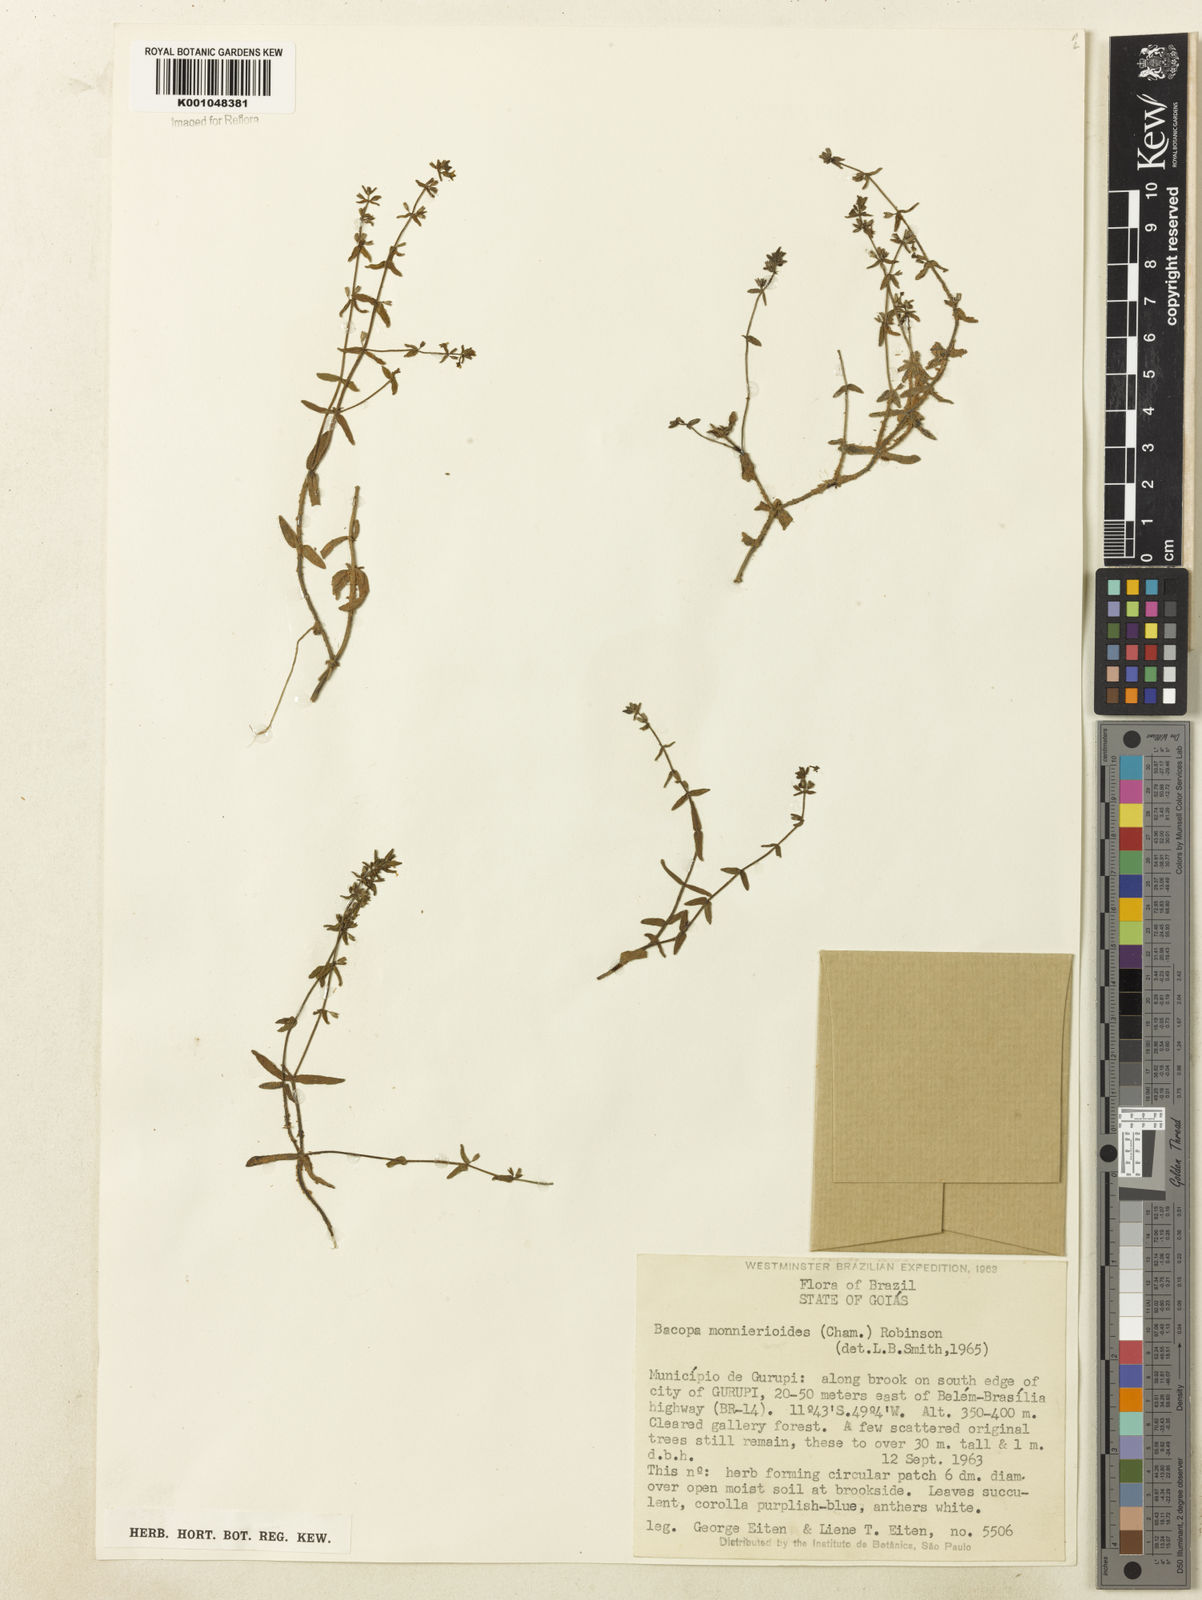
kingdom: Plantae
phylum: Tracheophyta
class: Magnoliopsida
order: Lamiales
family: Plantaginaceae
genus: Bacopa
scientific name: Bacopa monnierioides
